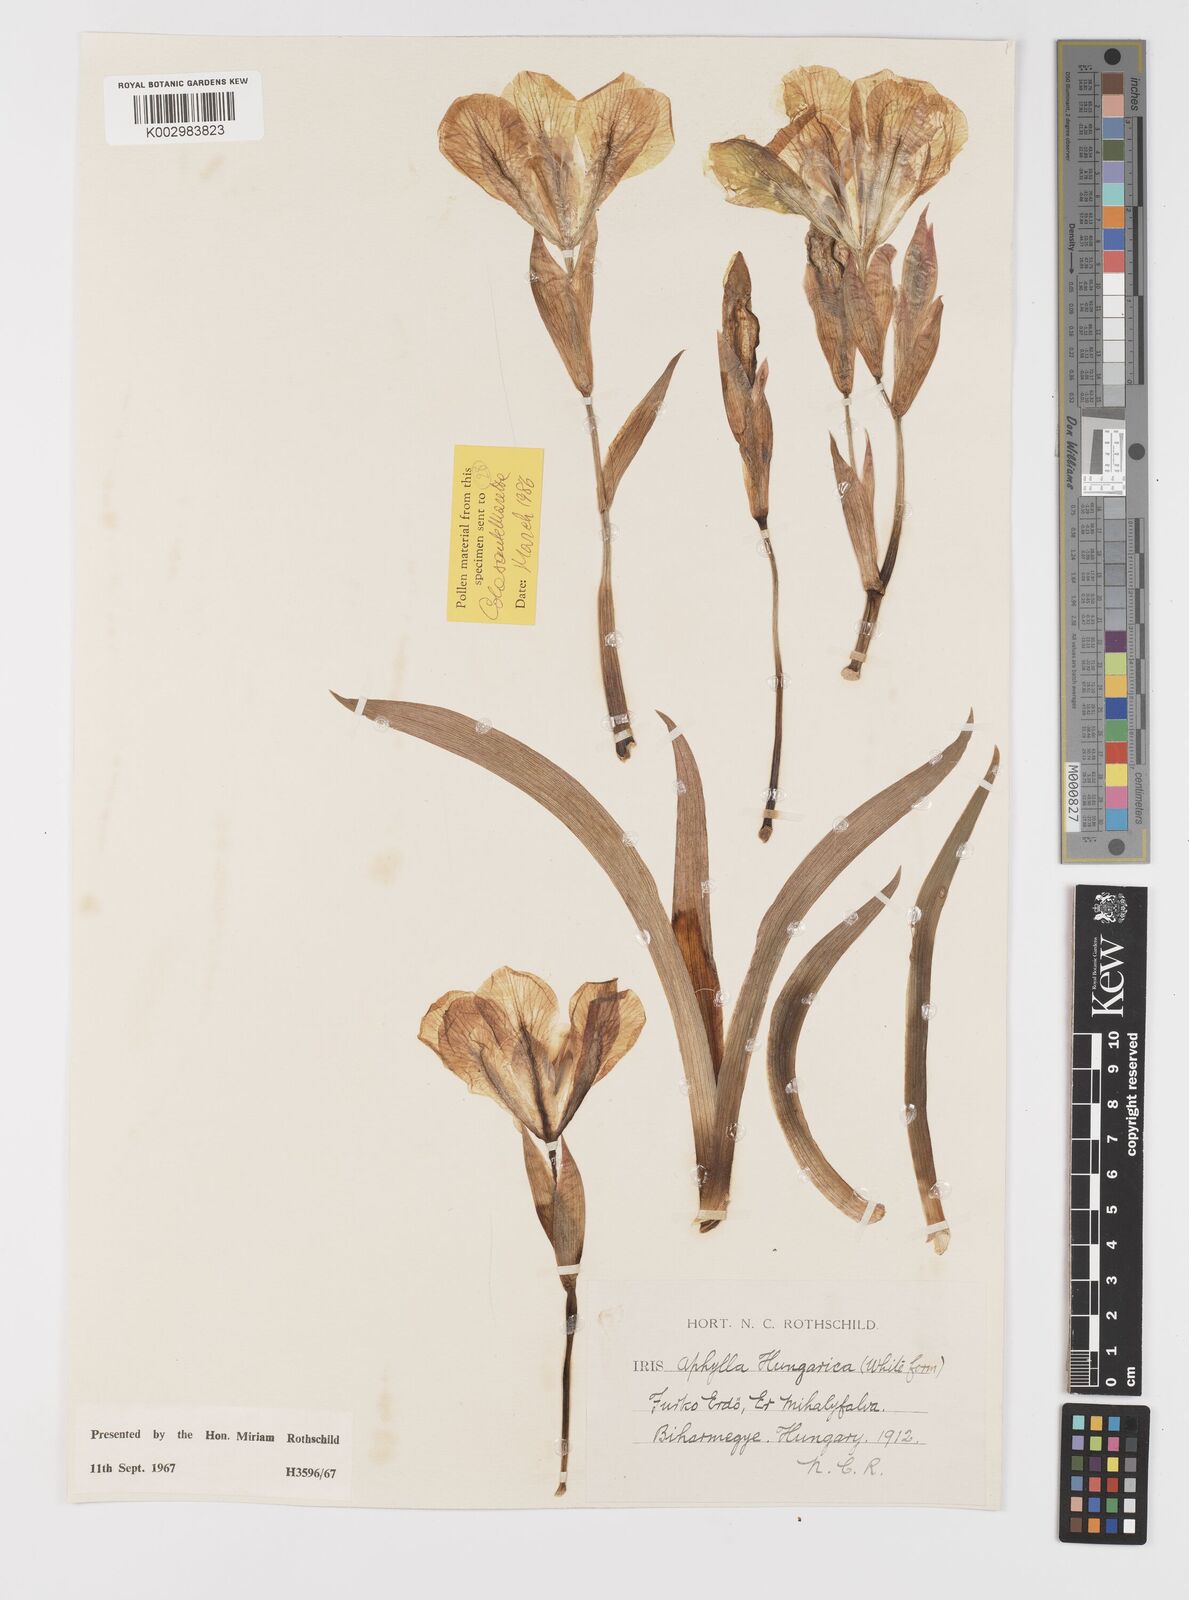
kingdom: Plantae
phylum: Tracheophyta
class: Liliopsida
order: Asparagales
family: Iridaceae
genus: Iris
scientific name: Iris aphylla
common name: Stool iris
